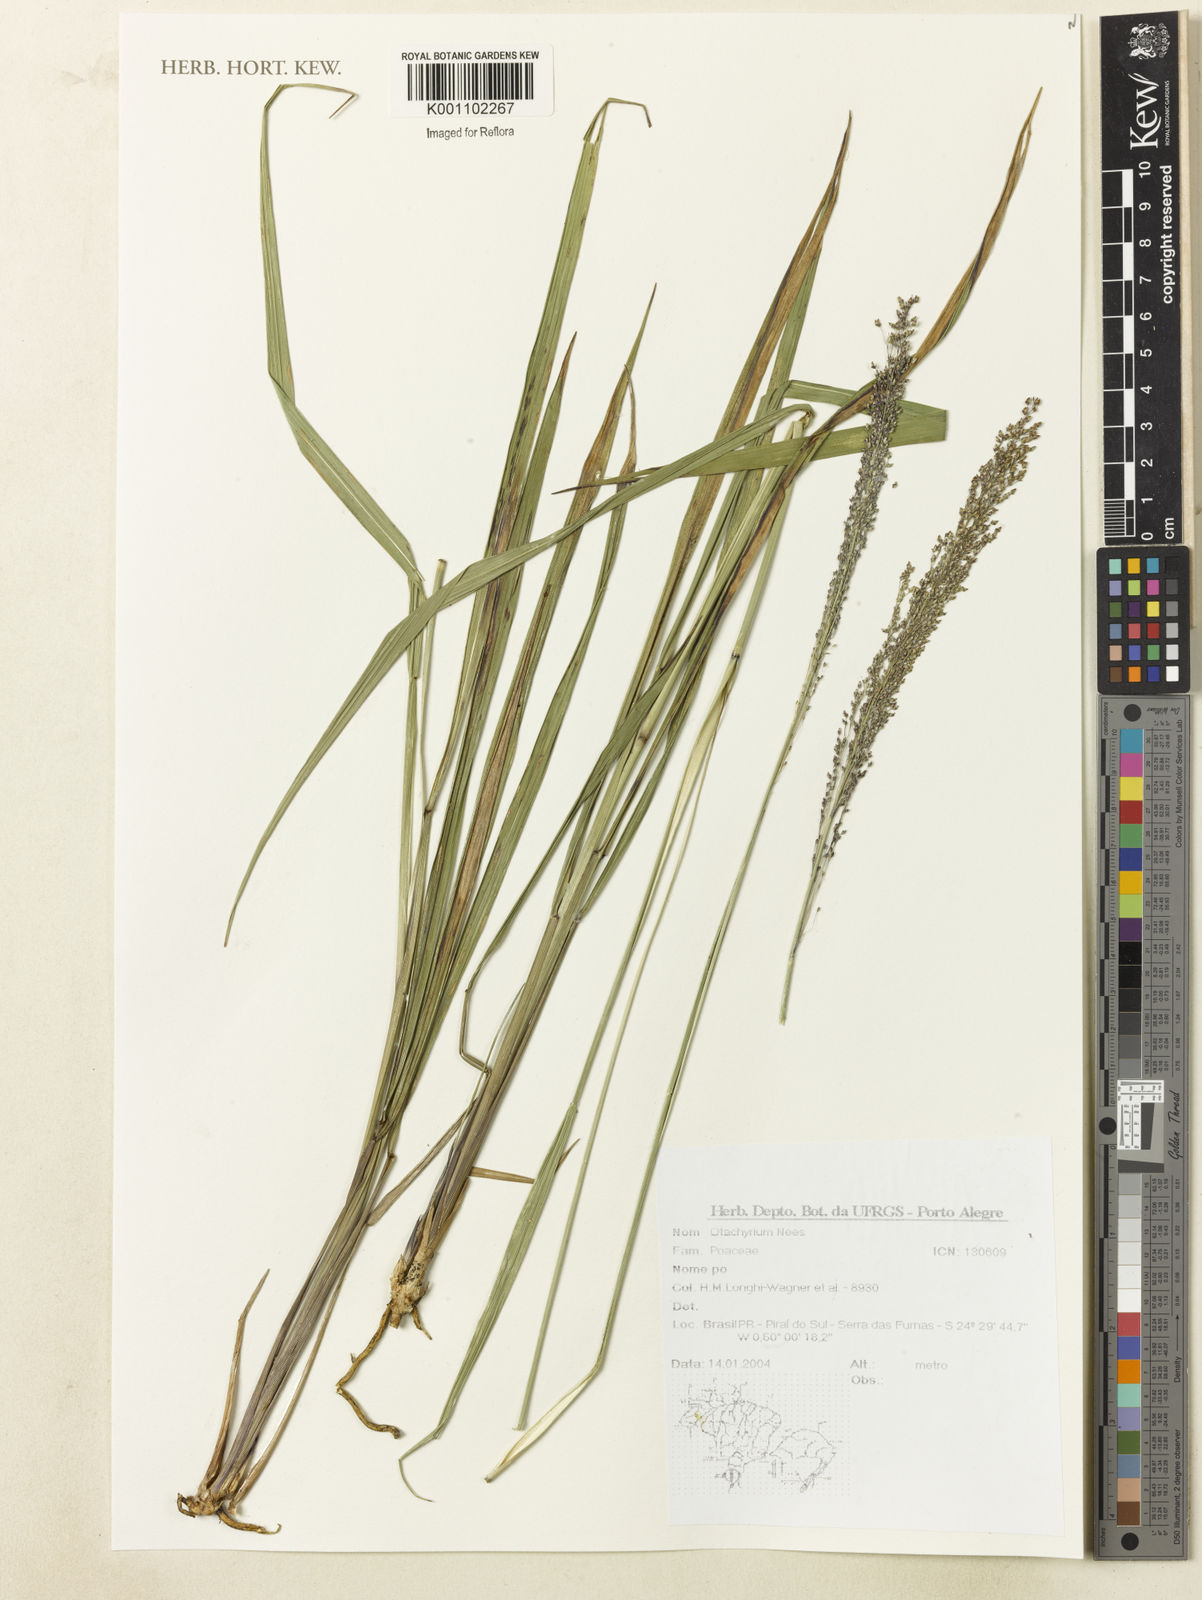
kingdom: Plantae
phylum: Tracheophyta
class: Liliopsida
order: Poales
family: Poaceae
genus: Otachyrium
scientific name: Otachyrium
